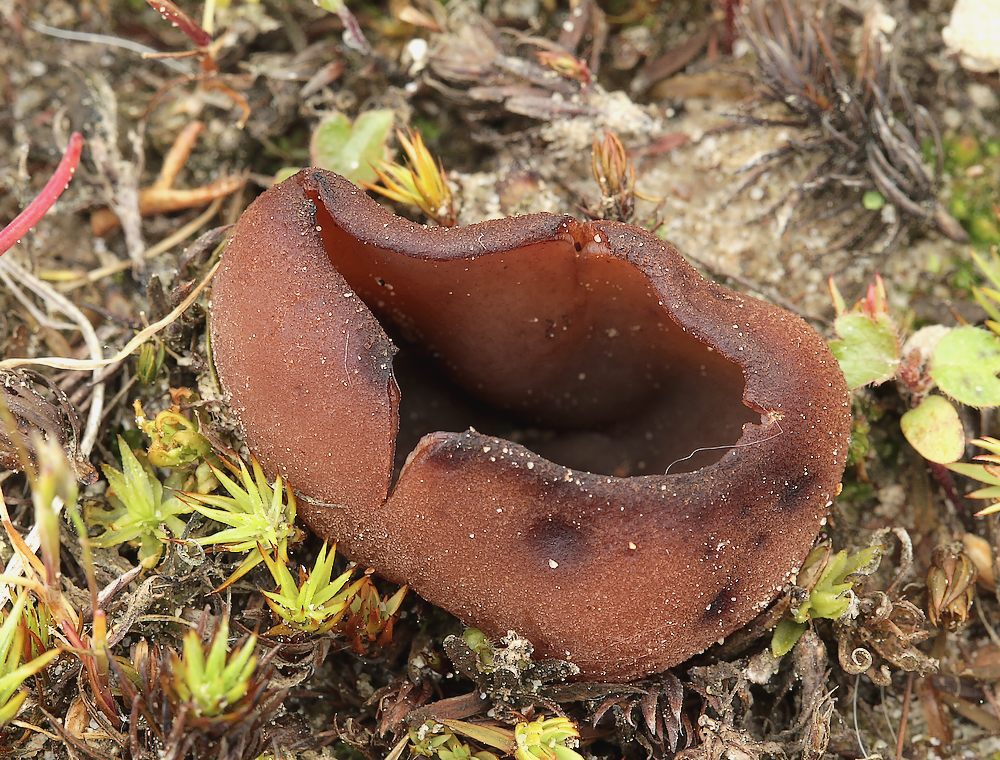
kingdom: Fungi
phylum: Ascomycota
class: Pezizomycetes
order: Pezizales
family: Pezizaceae
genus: Legaliana
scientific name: Legaliana badia
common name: leverbrun bægersvamp
